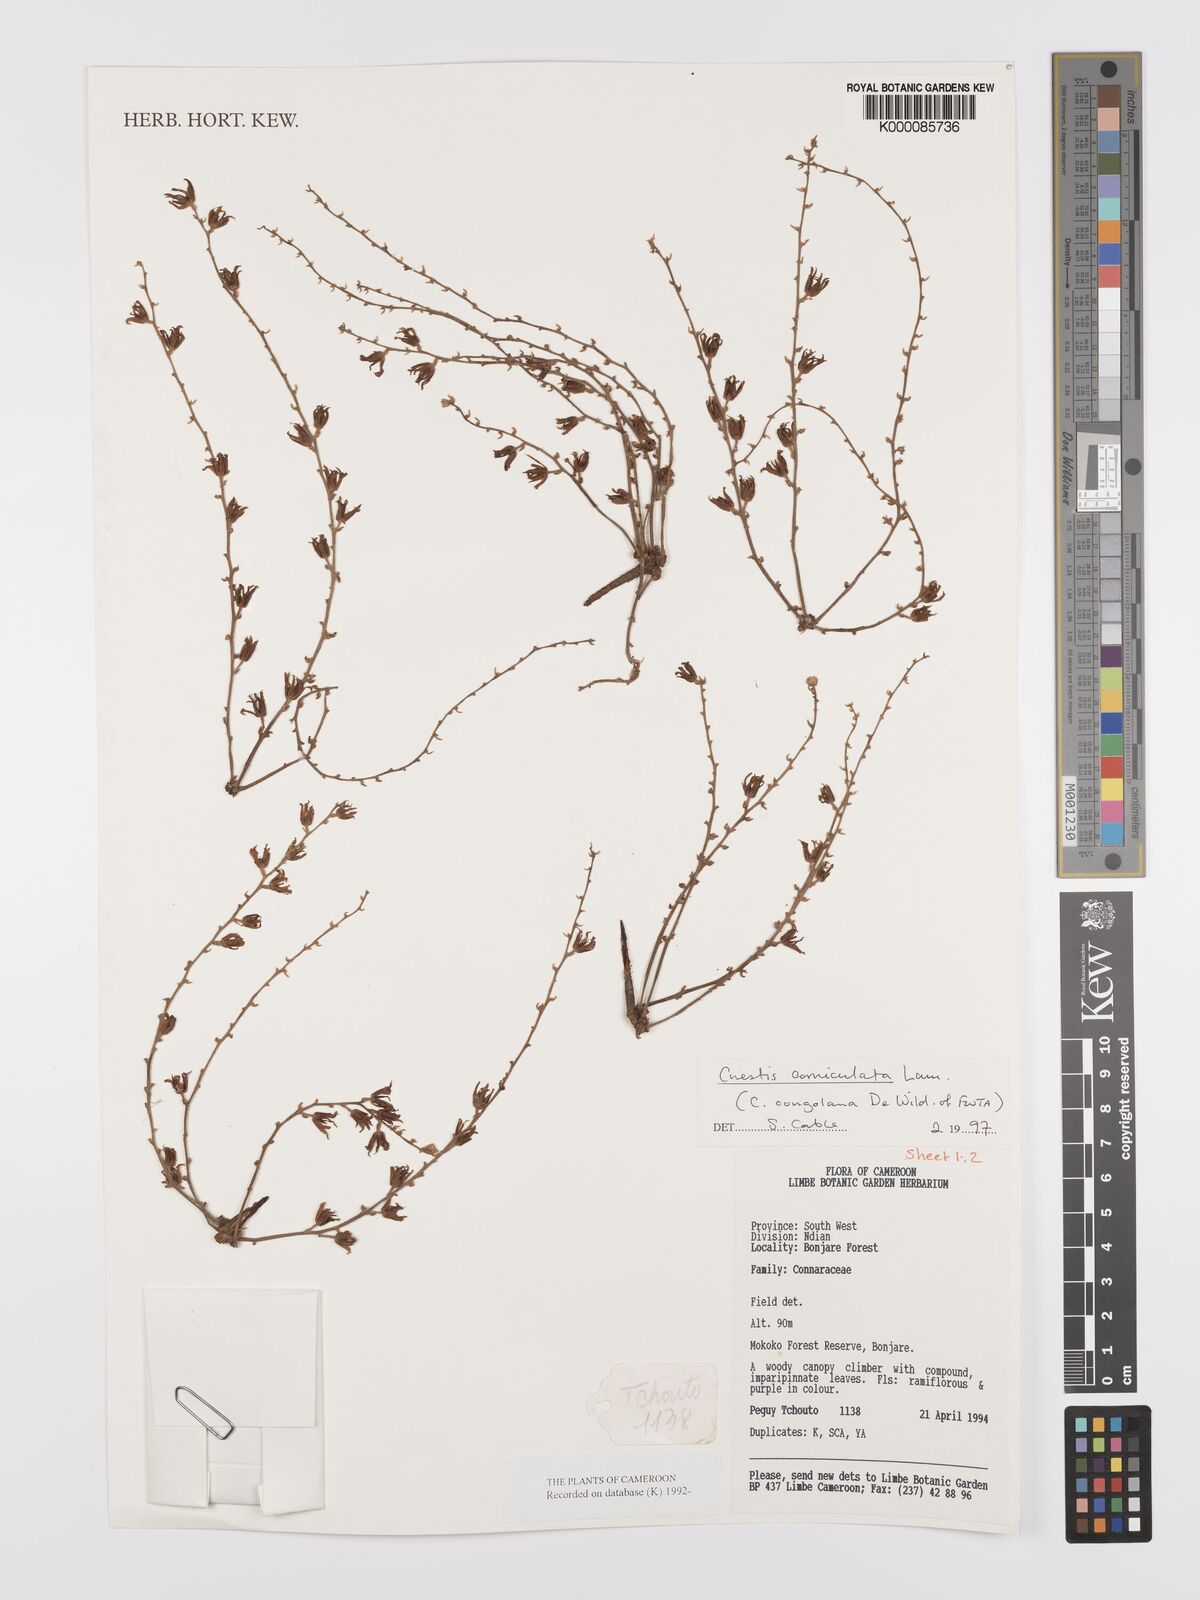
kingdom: Plantae
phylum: Tracheophyta
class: Magnoliopsida
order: Oxalidales
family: Connaraceae
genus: Cnestis
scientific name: Cnestis corniculata
